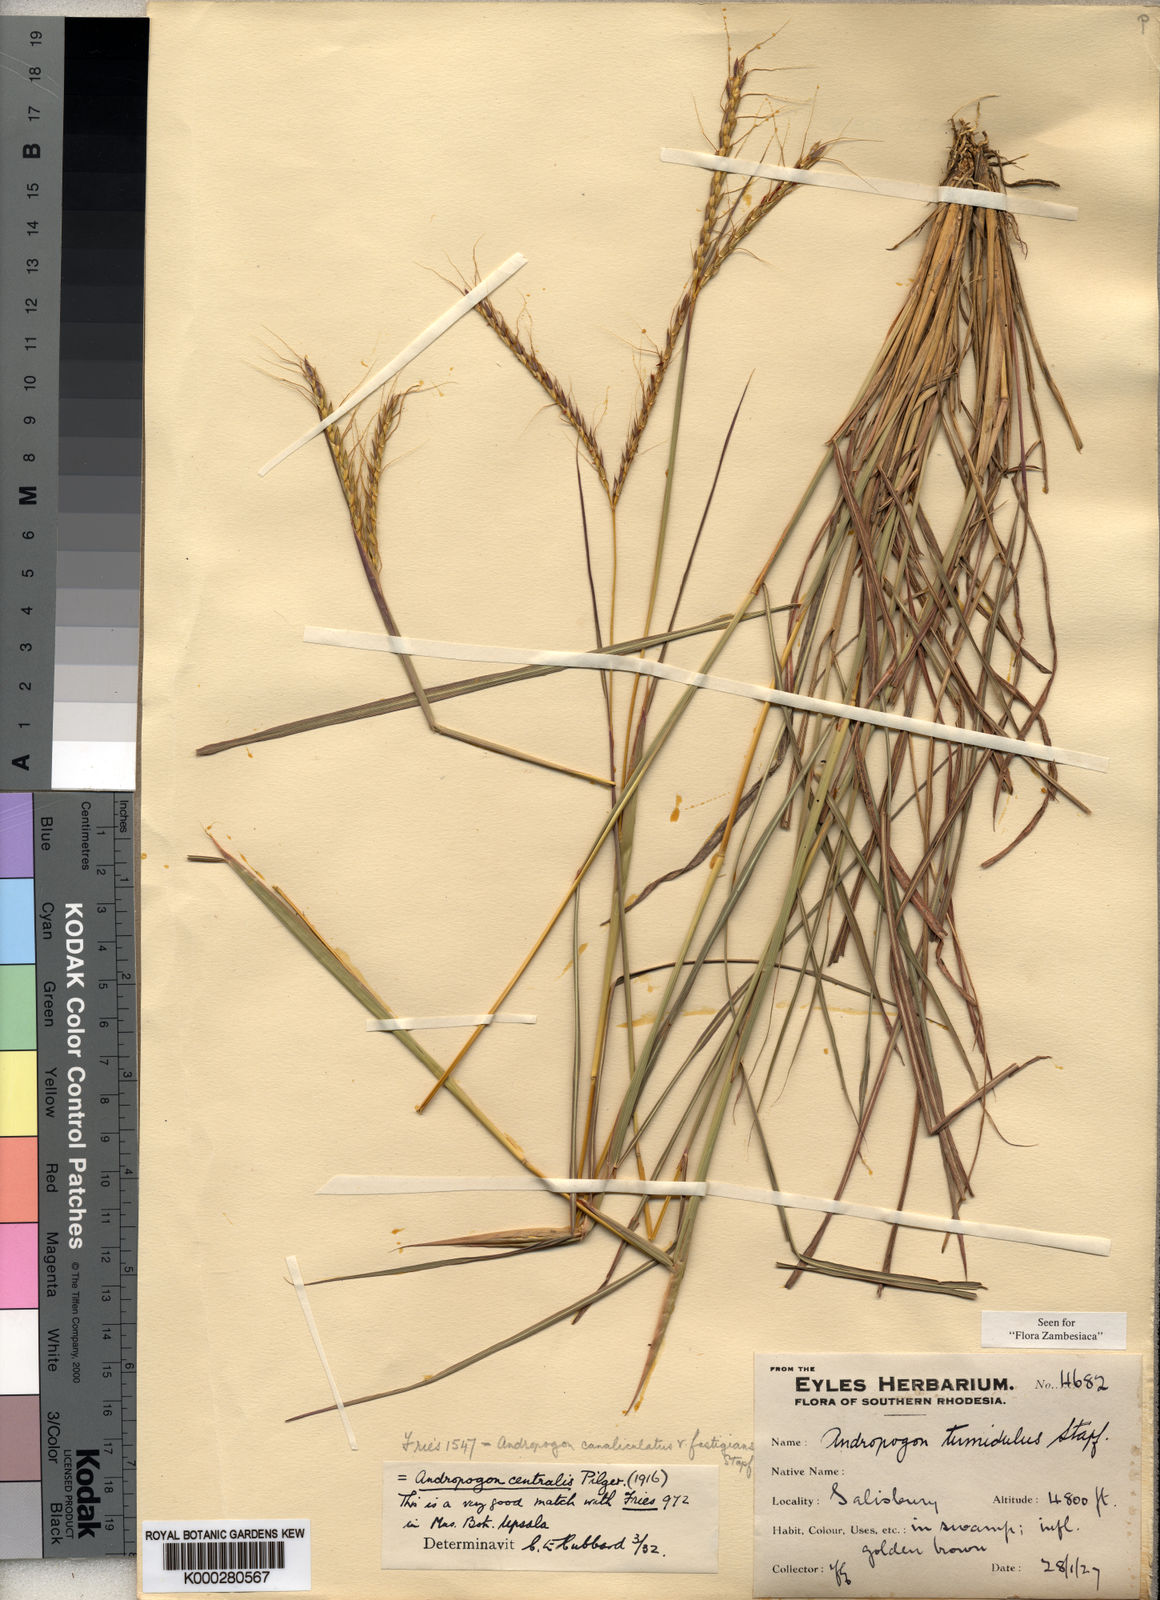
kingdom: Plantae
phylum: Tracheophyta
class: Liliopsida
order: Poales
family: Poaceae
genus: Andropogon
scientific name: Andropogon perligulatus
